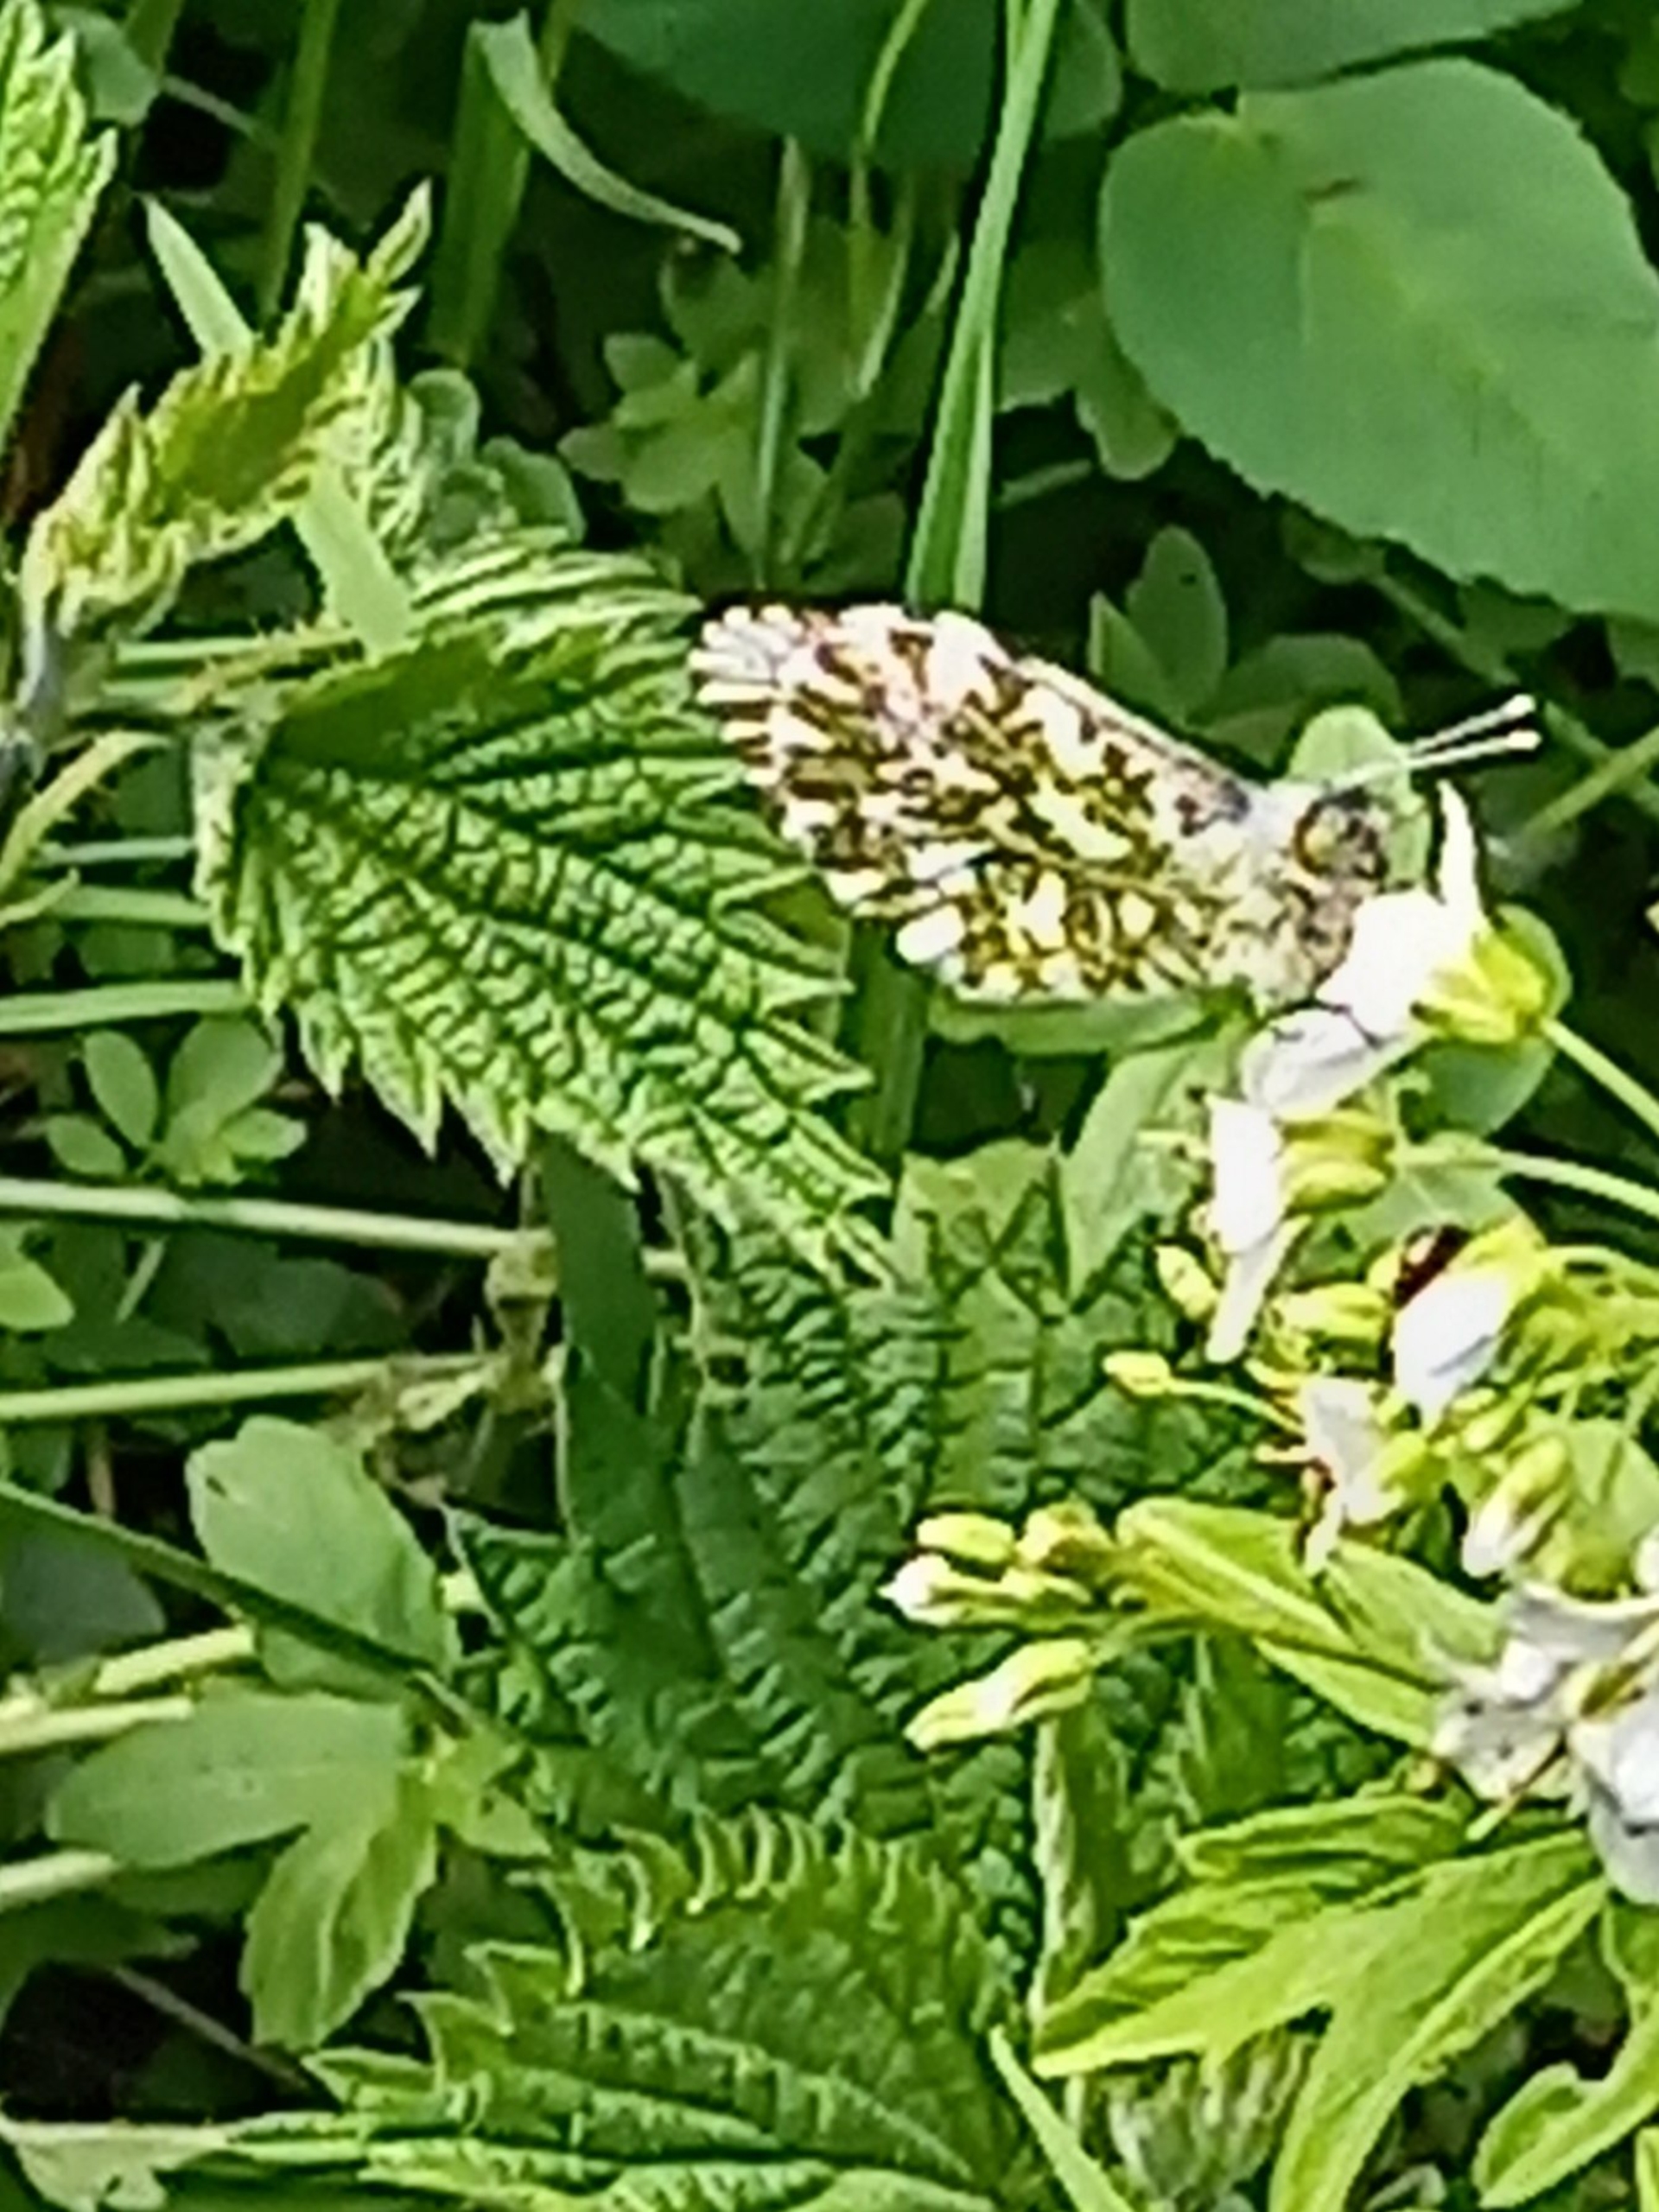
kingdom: Animalia
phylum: Arthropoda
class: Insecta
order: Lepidoptera
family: Pieridae
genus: Anthocharis
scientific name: Anthocharis cardamines
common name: Aurora
